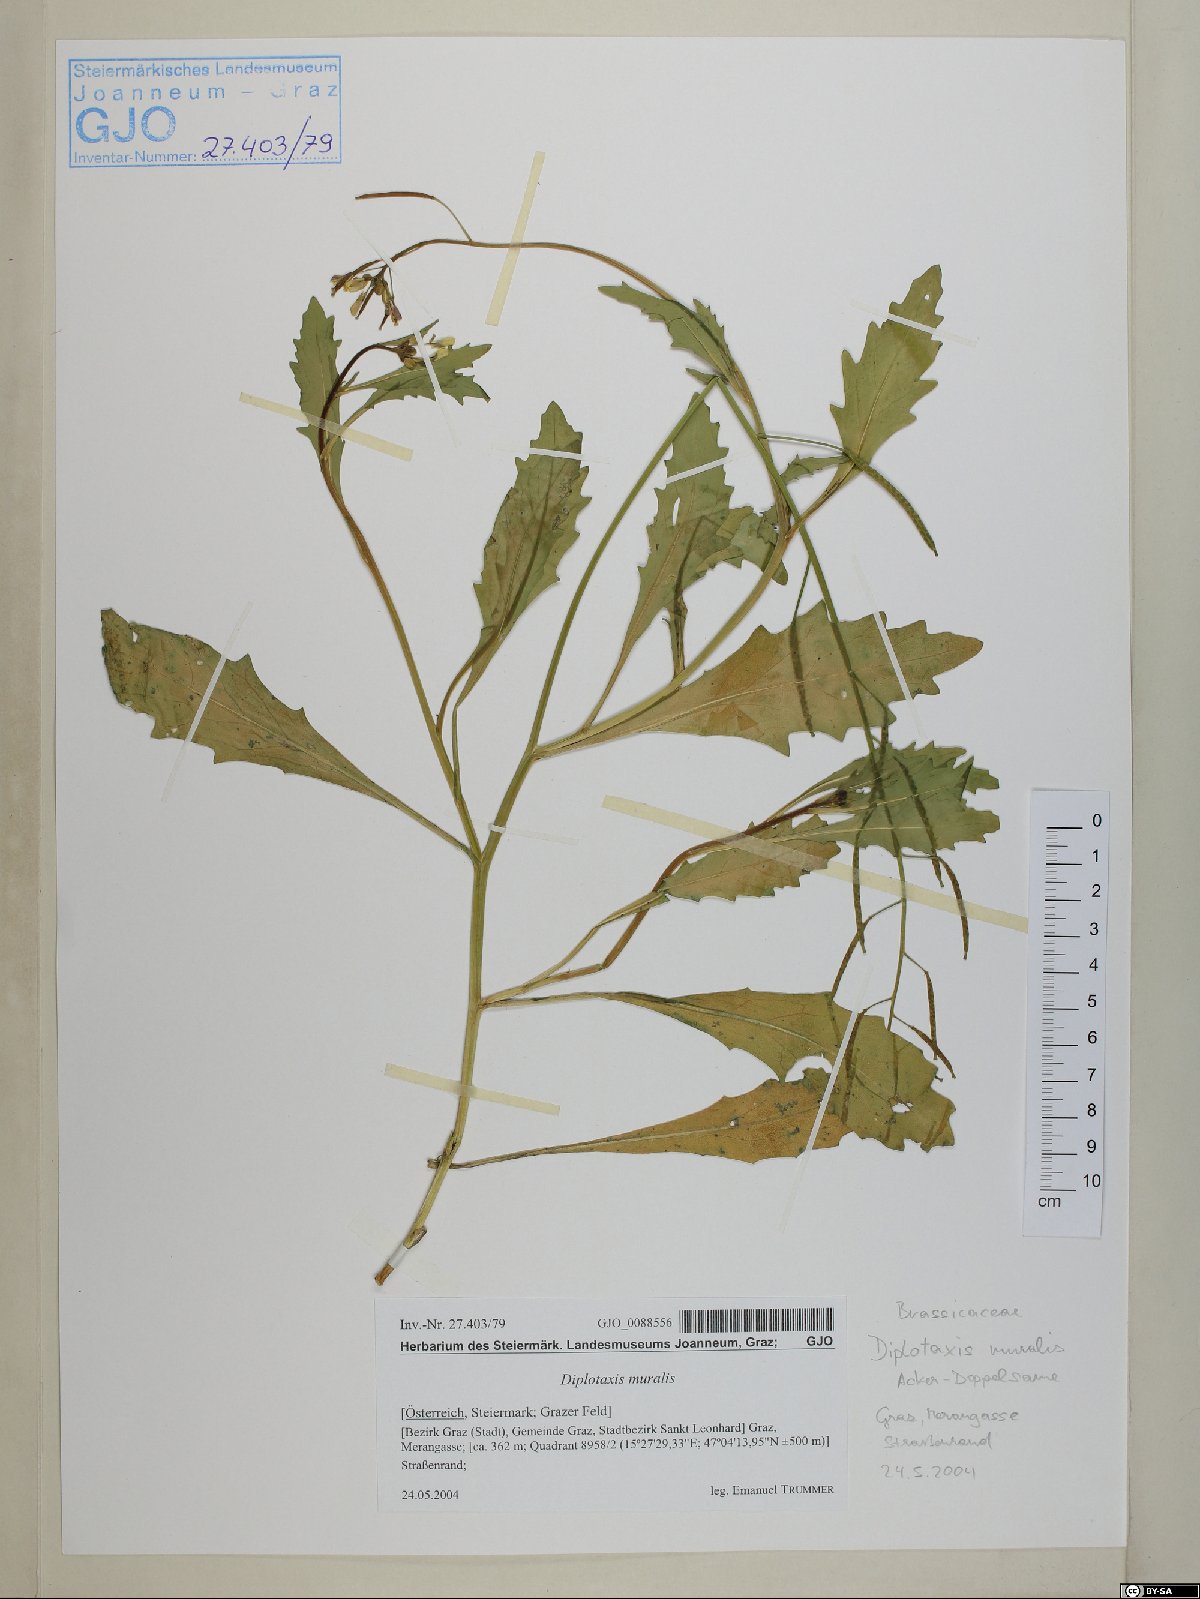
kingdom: Plantae
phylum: Tracheophyta
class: Magnoliopsida
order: Brassicales
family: Brassicaceae
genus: Diplotaxis
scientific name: Diplotaxis muralis
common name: Annual wall-rocket
